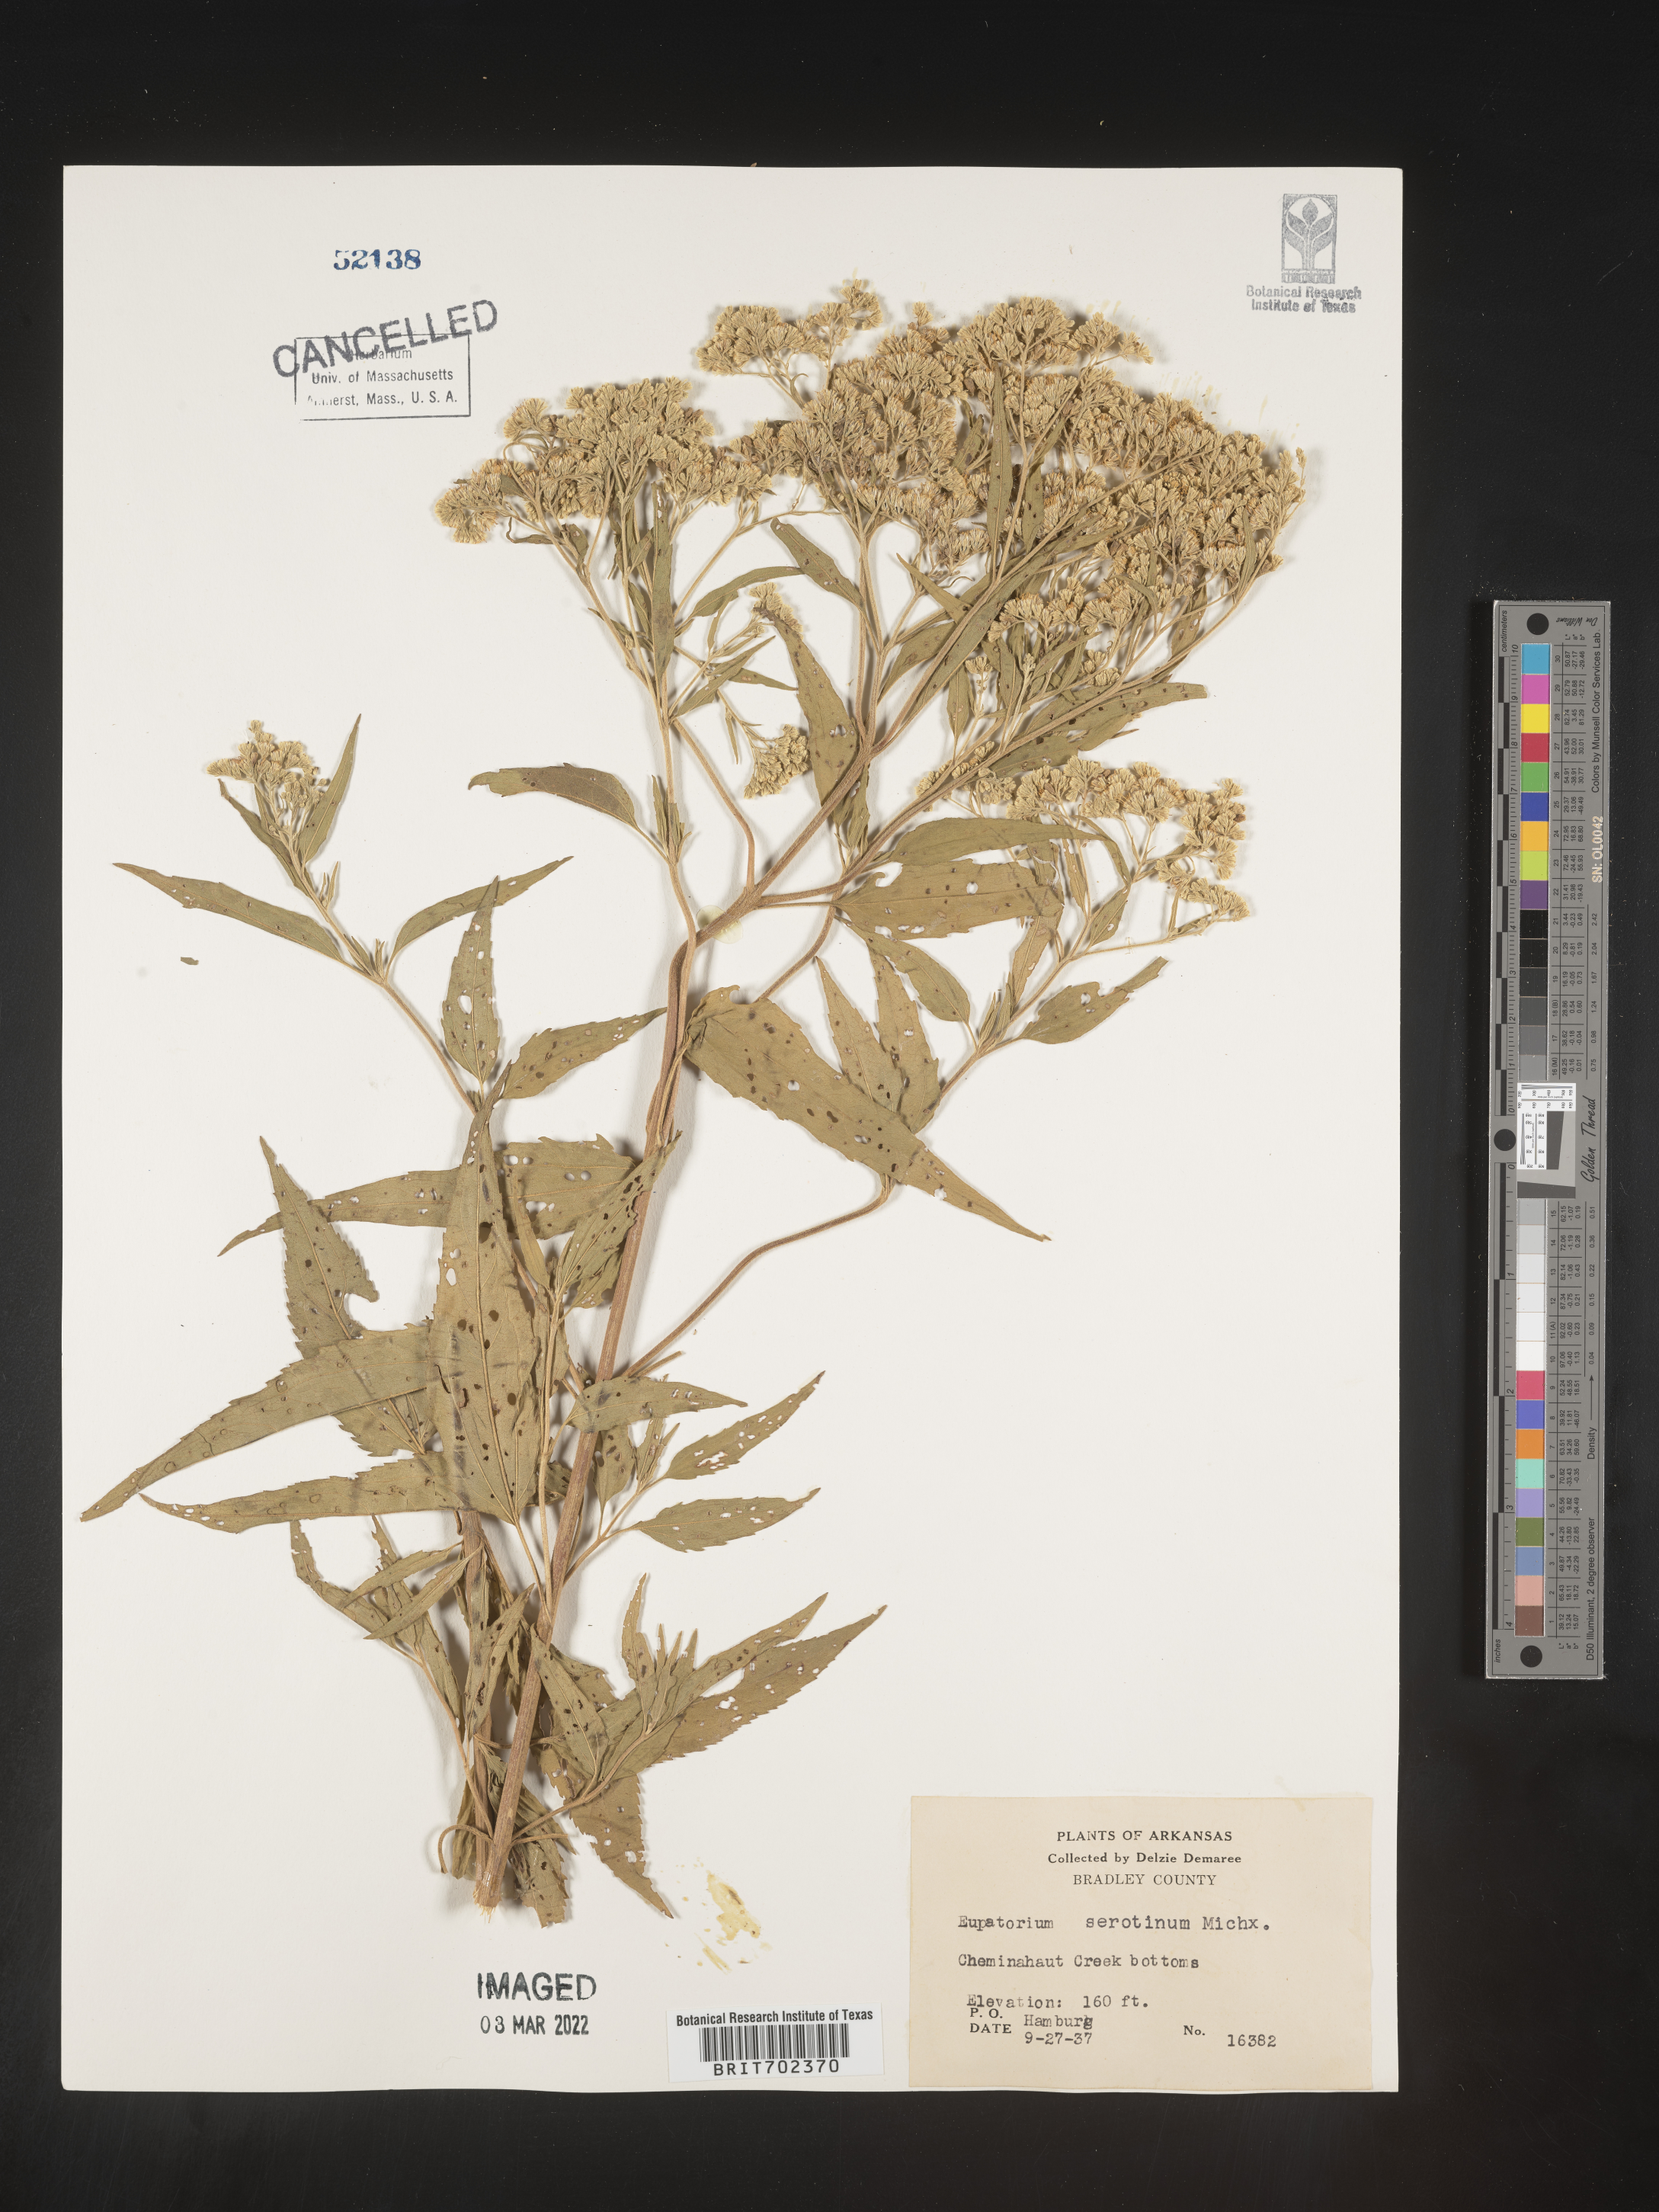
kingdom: Plantae
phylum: Tracheophyta
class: Magnoliopsida
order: Asterales
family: Asteraceae
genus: Eupatorium
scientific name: Eupatorium serotinum
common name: Late boneset
